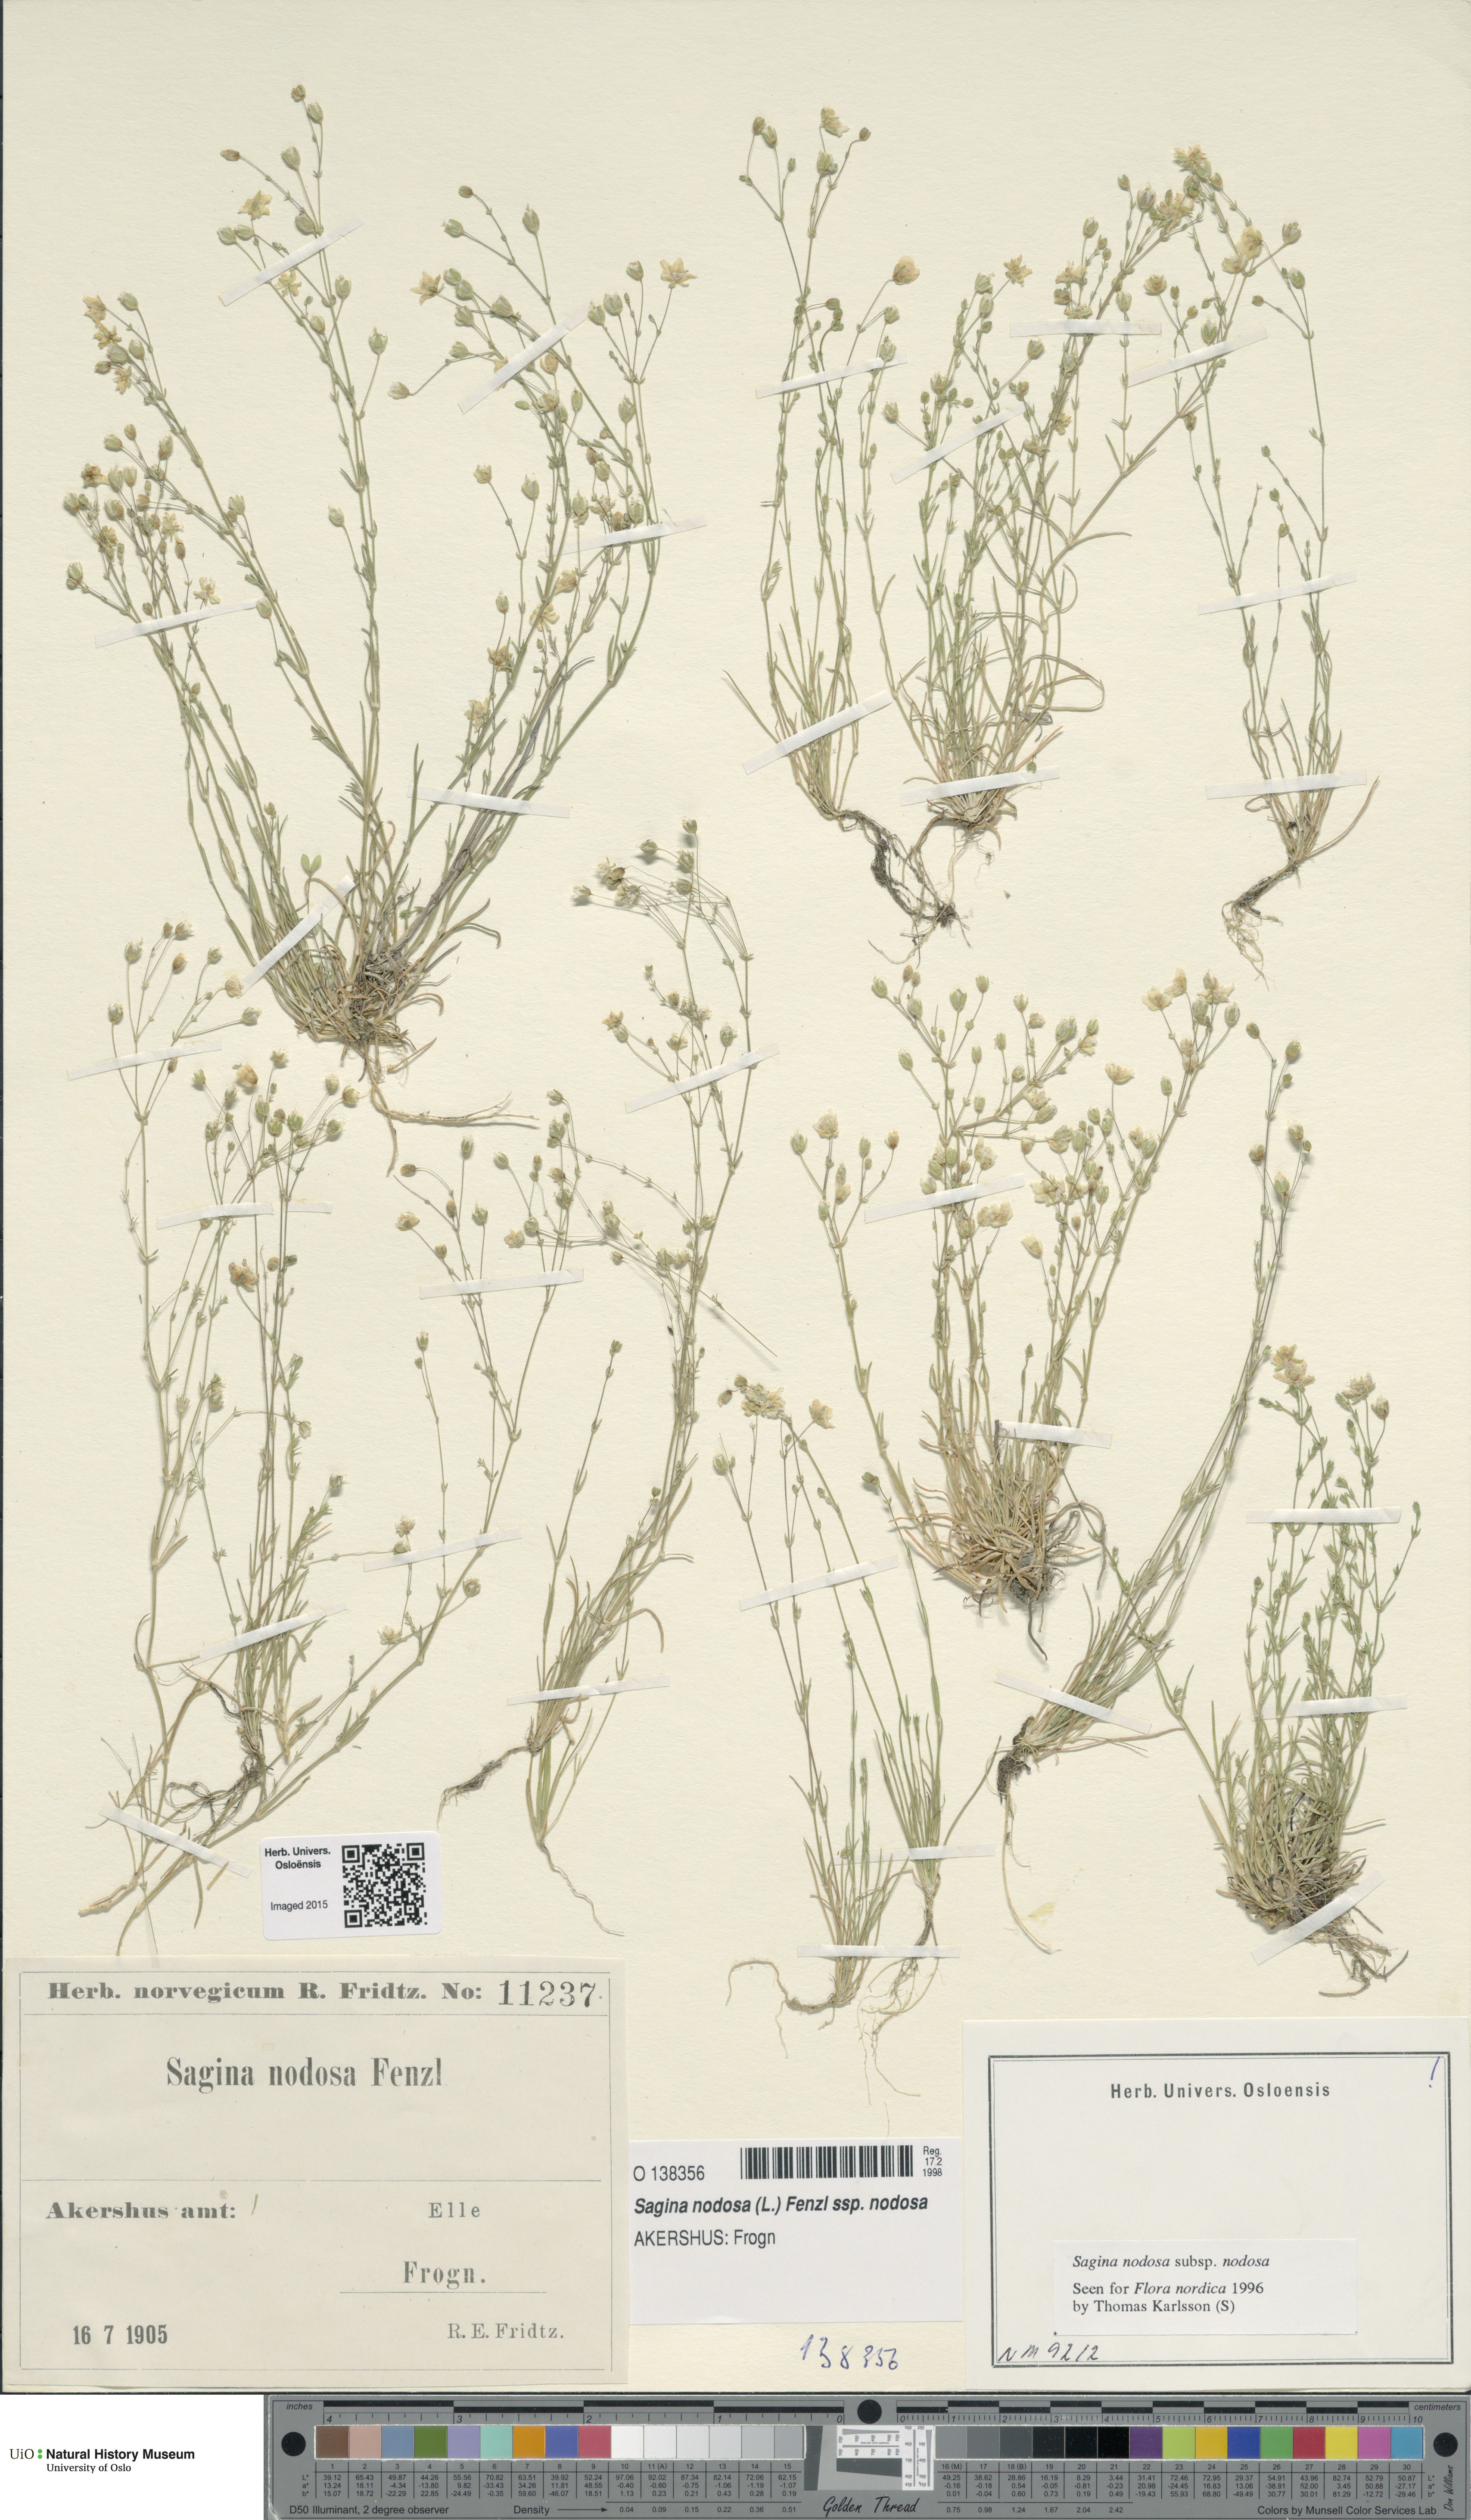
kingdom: Plantae
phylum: Tracheophyta
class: Magnoliopsida
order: Caryophyllales
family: Caryophyllaceae
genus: Sagina
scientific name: Sagina nodosa
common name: Knotted pearlwort
